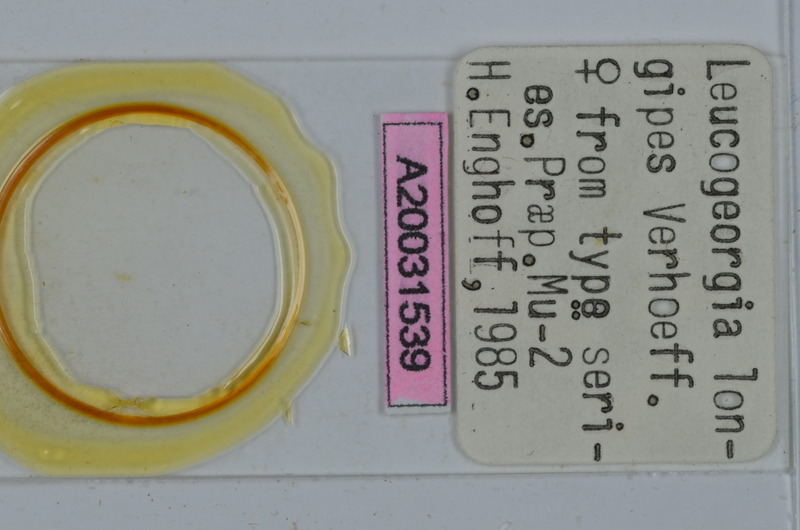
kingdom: Animalia
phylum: Arthropoda
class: Diplopoda
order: Julida
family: Julidae
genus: Leucogeorgia
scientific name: Leucogeorgia longipes
